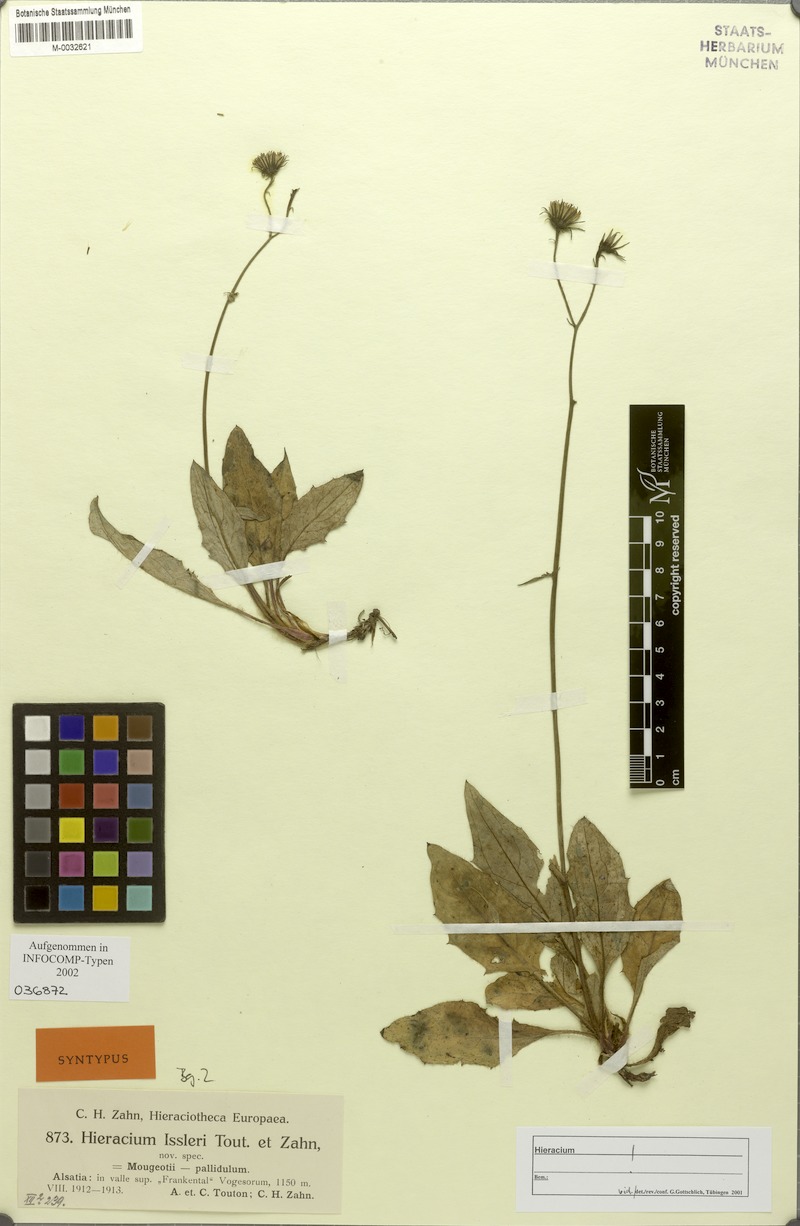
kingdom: Plantae
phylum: Tracheophyta
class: Magnoliopsida
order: Asterales
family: Asteraceae
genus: Hieracium
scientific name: Hieracium juranum
